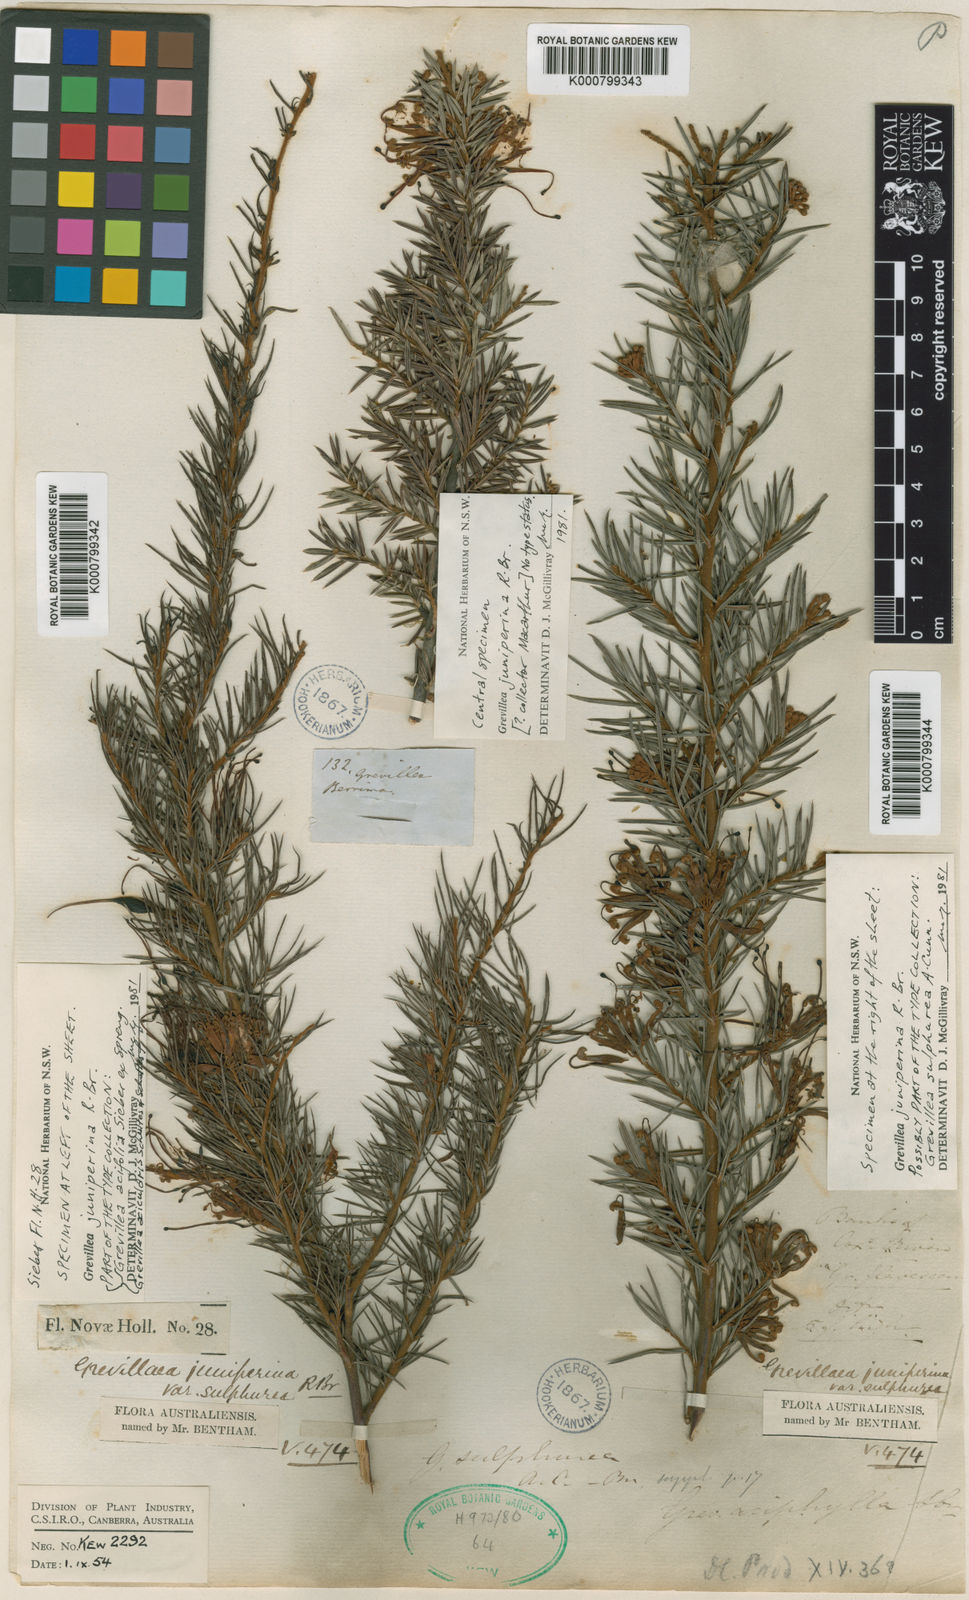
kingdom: Plantae
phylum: Tracheophyta
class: Magnoliopsida
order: Proteales
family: Proteaceae
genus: Grevillea
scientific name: Grevillea juniperina
